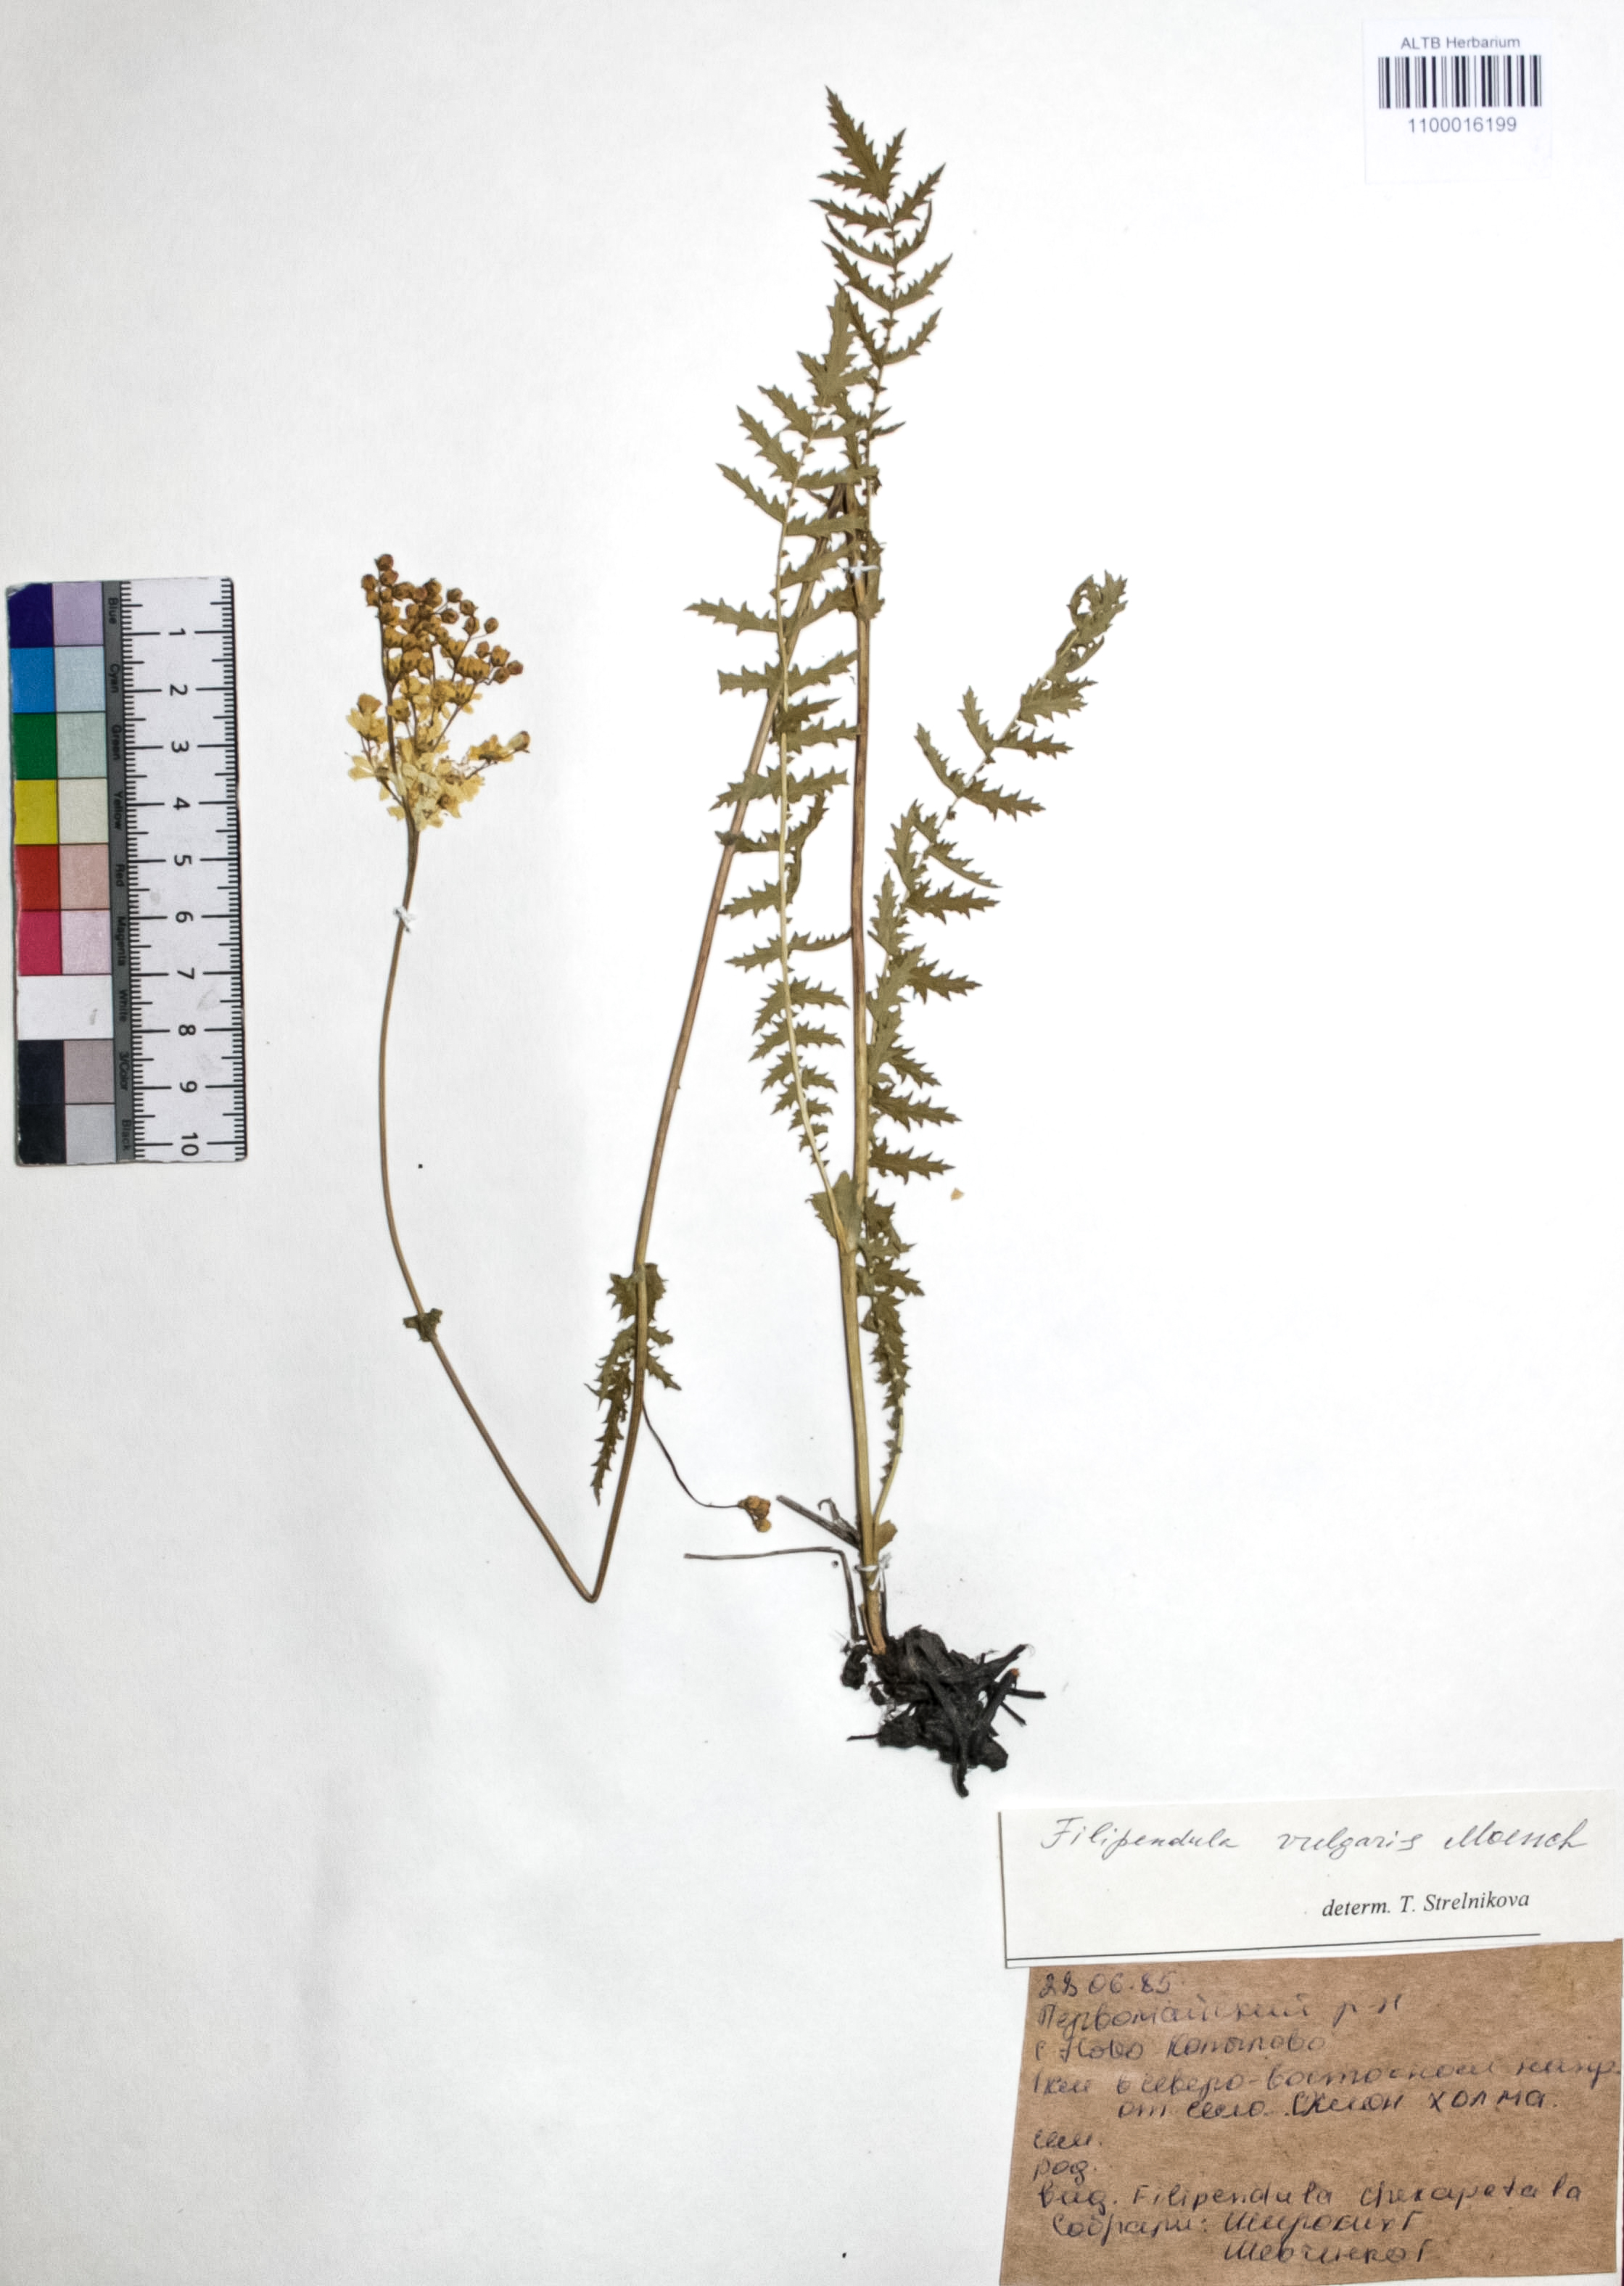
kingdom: Plantae
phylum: Tracheophyta
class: Magnoliopsida
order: Rosales
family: Rosaceae
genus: Filipendula
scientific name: Filipendula vulgaris
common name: Dropwort
